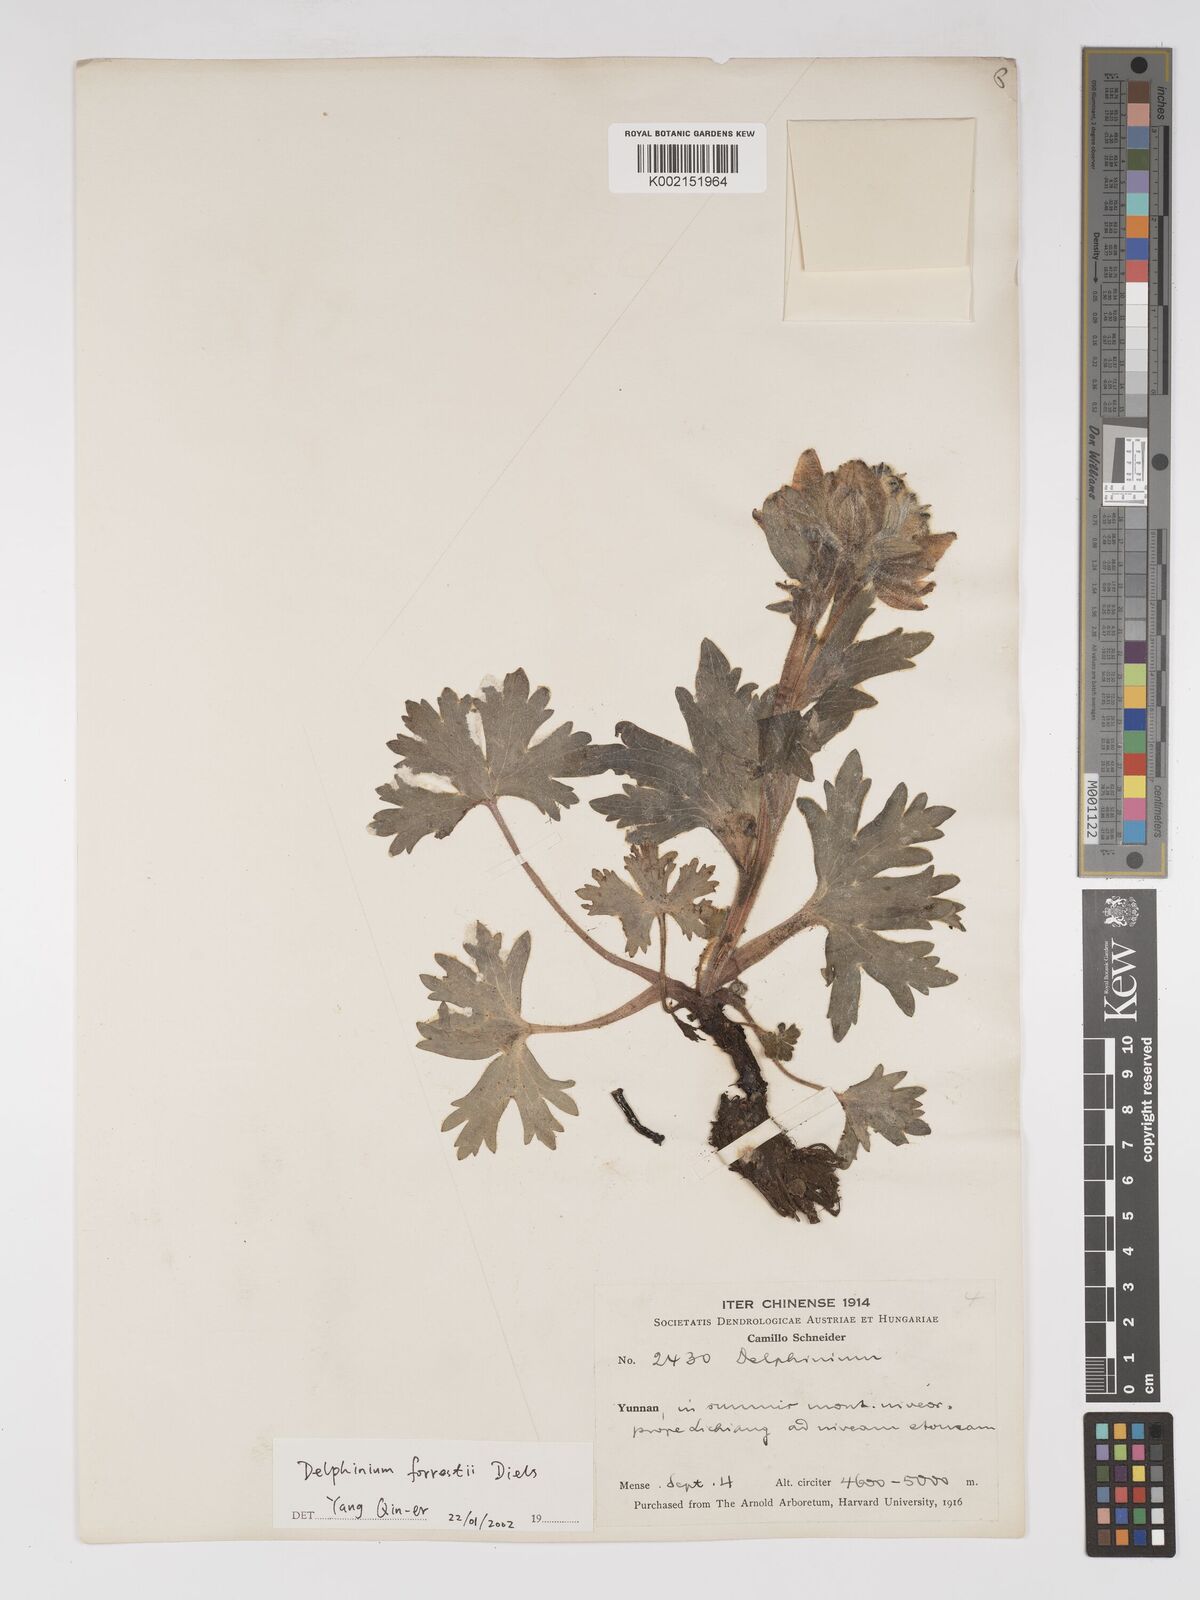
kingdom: Plantae
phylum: Tracheophyta
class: Magnoliopsida
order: Ranunculales
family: Ranunculaceae
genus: Delphinium
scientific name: Delphinium trichophorum
